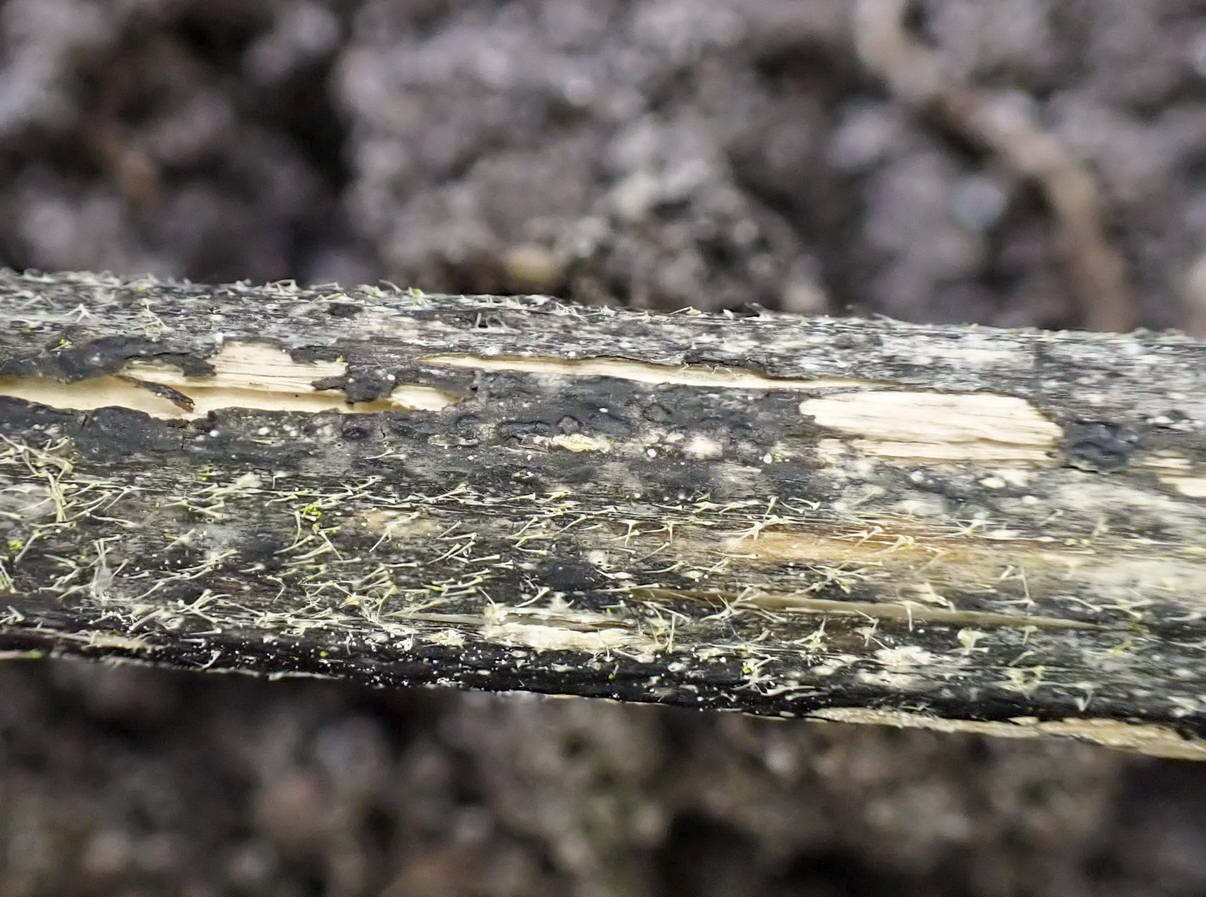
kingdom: Fungi
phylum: Ascomycota
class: Sordariomycetes
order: Diaporthales
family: Diaporthaceae
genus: Diaporthopsis
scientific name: Diaporthopsis urticae
